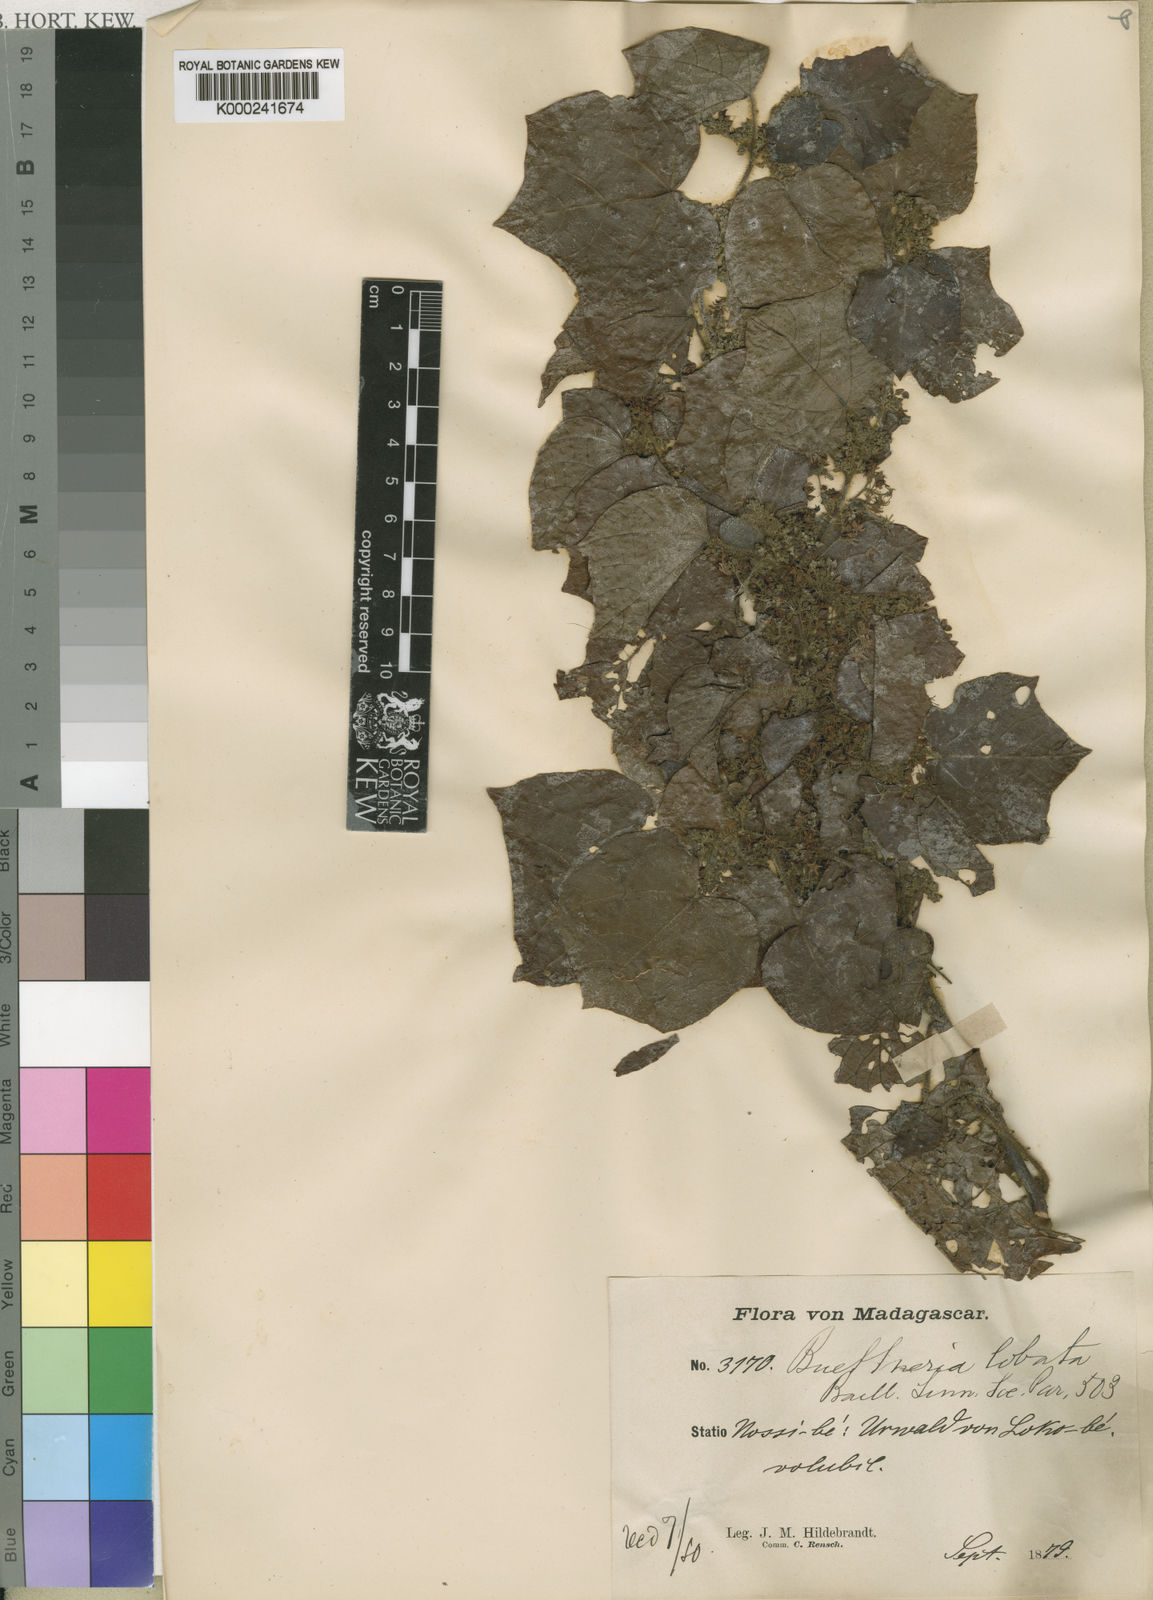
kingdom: Plantae
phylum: Tracheophyta
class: Magnoliopsida
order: Malvales
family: Malvaceae
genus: Byttneria
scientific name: Byttneria lobata
